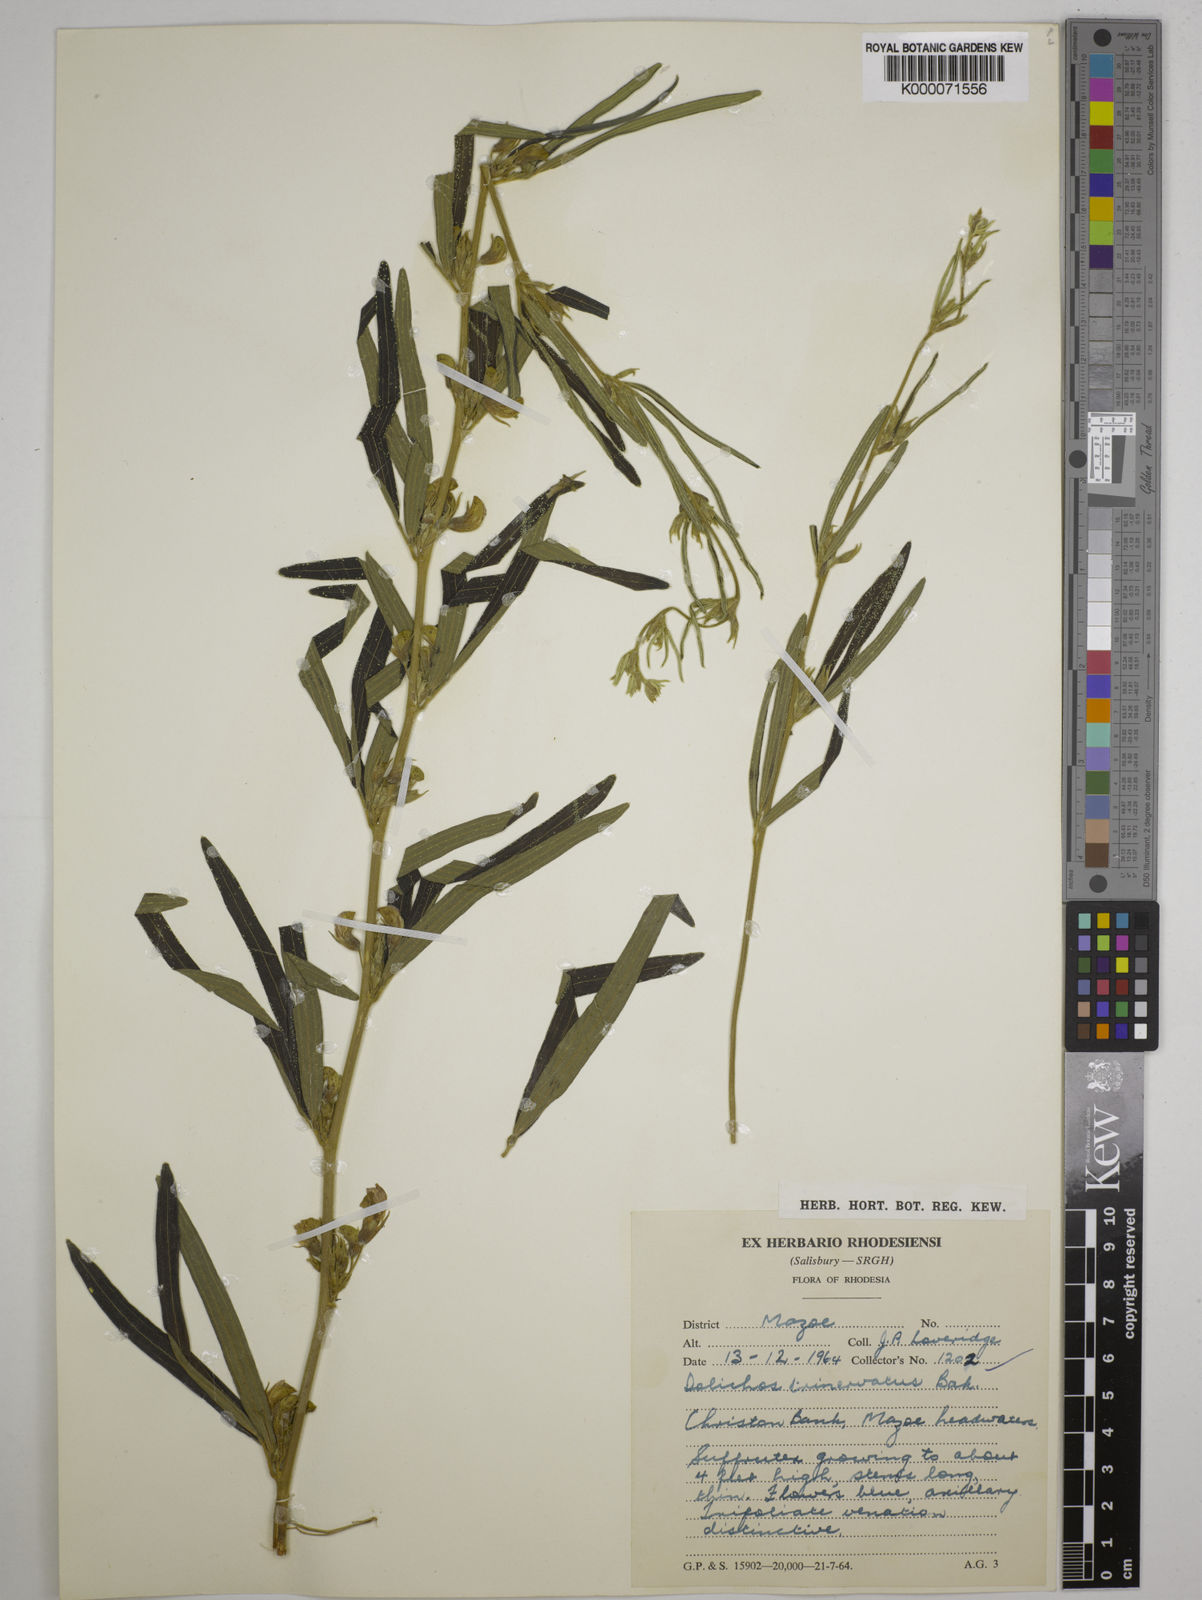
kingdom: Plantae
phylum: Tracheophyta
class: Magnoliopsida
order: Fabales
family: Fabaceae
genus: Dolichos
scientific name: Dolichos trinervatus
